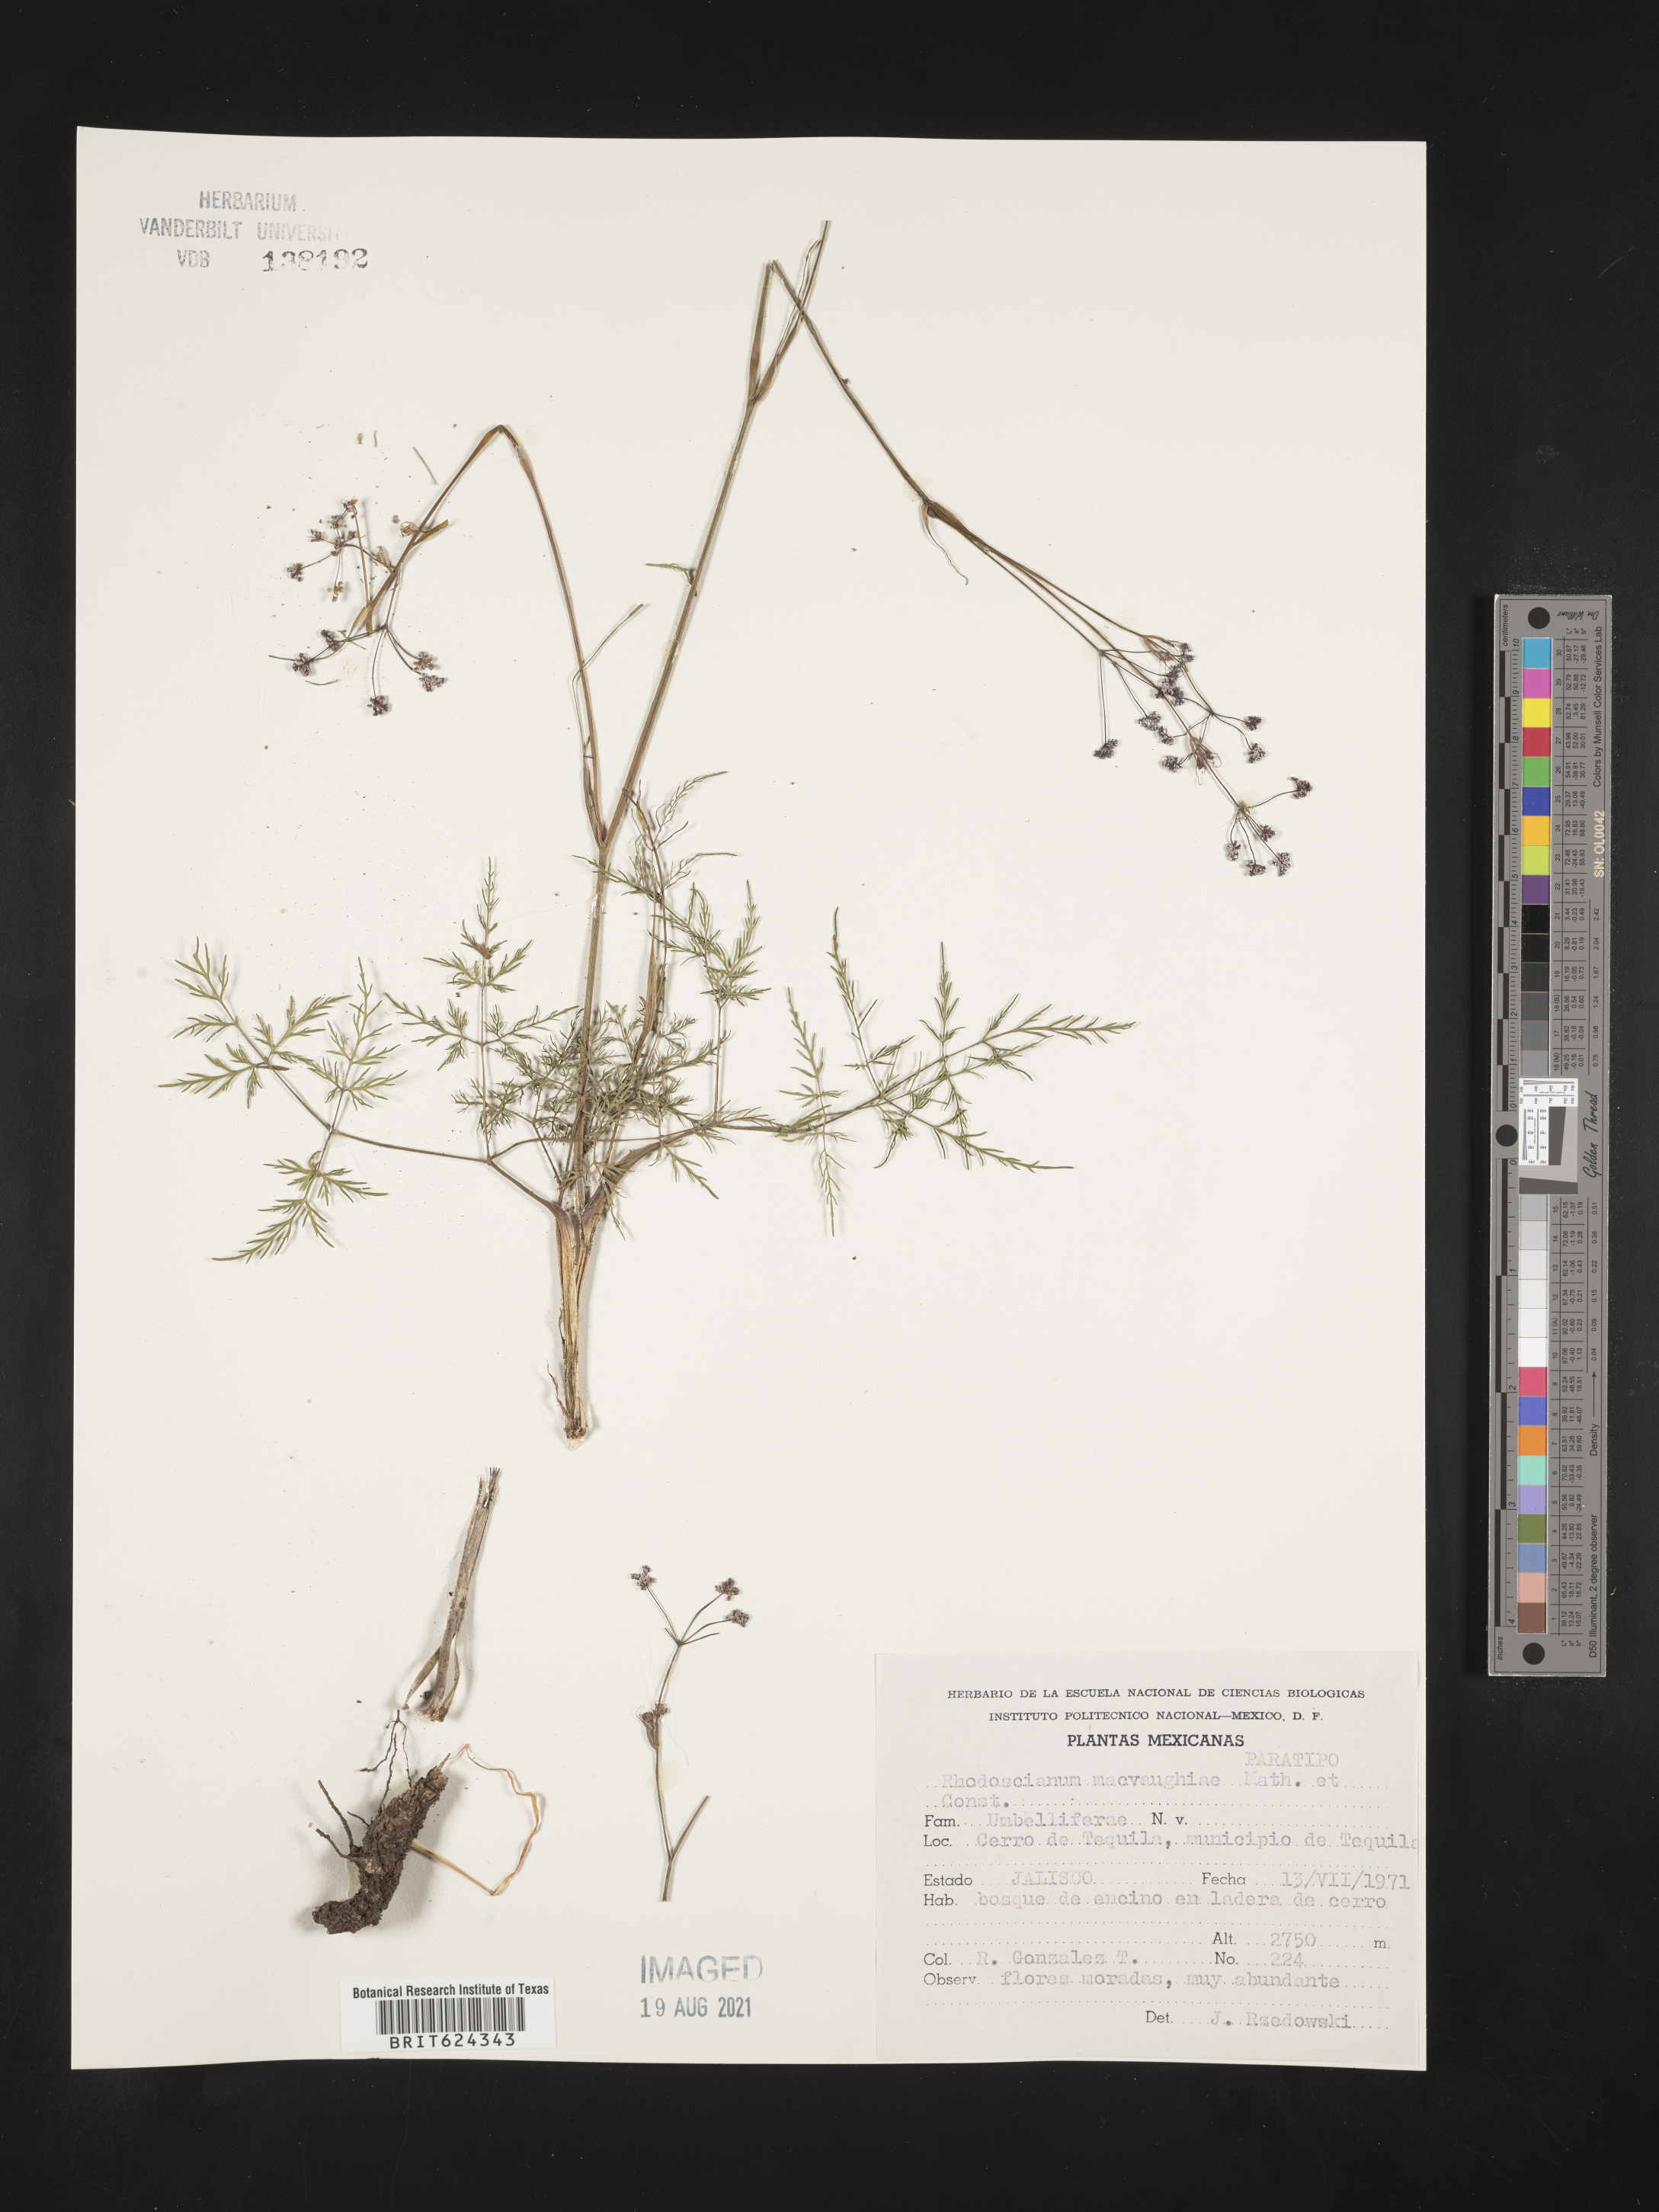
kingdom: Plantae
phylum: Tracheophyta
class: Magnoliopsida
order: Apiales
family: Apiaceae
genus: Rhodosciadium
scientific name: Rhodosciadium
